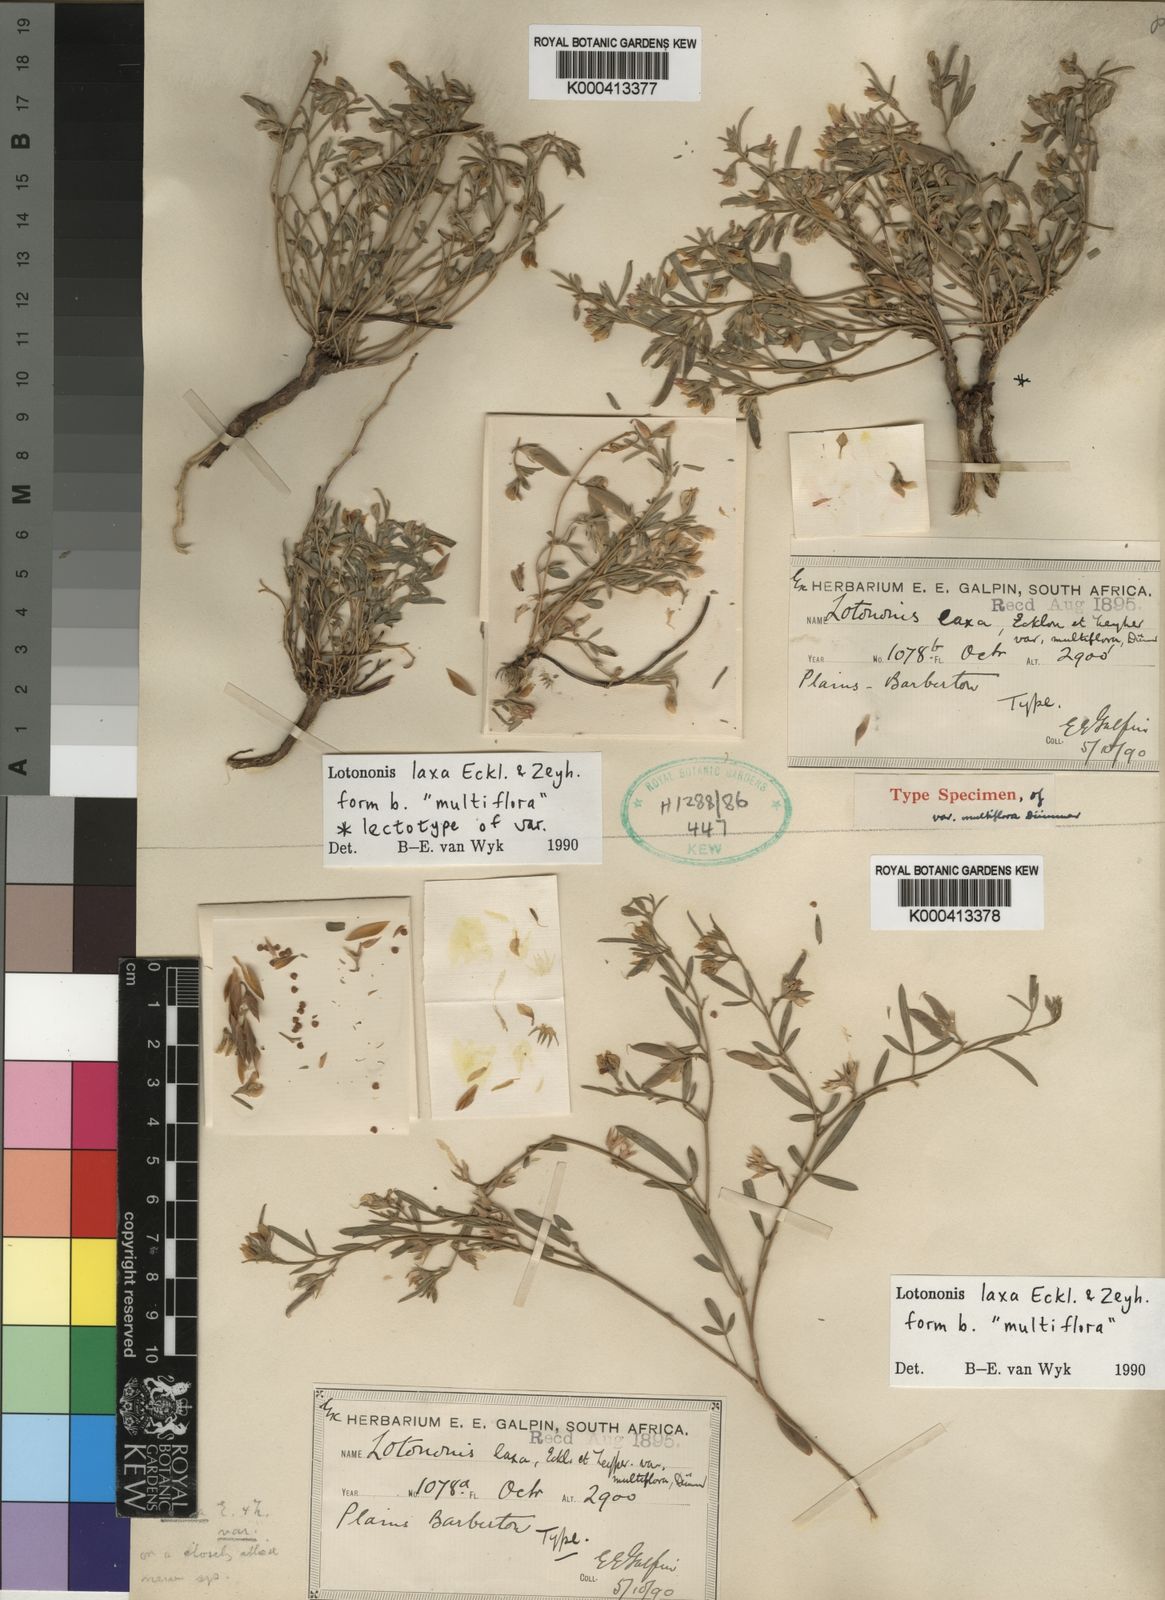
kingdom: Plantae
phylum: Tracheophyta
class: Magnoliopsida
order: Fabales
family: Fabaceae
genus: Lotononis
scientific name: Lotononis laxa
